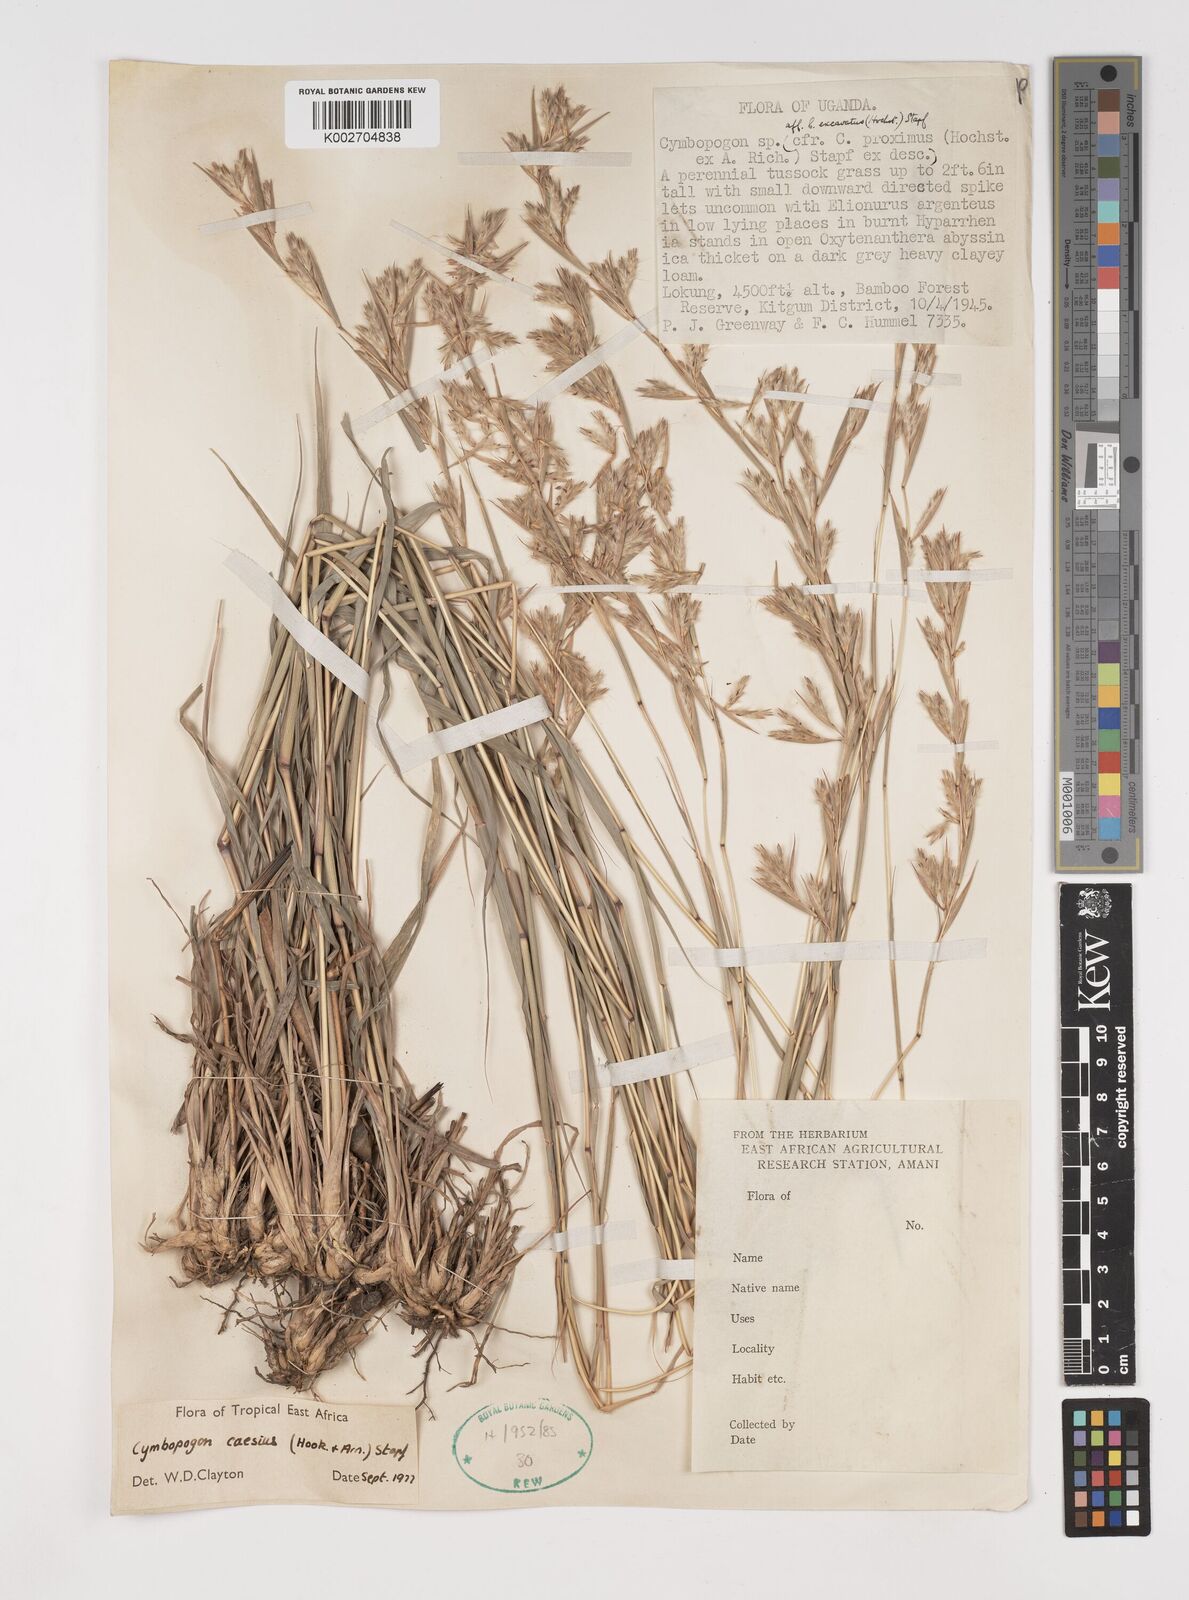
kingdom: Plantae
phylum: Tracheophyta
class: Liliopsida
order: Poales
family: Poaceae
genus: Cymbopogon
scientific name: Cymbopogon caesius
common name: Kachi grass
